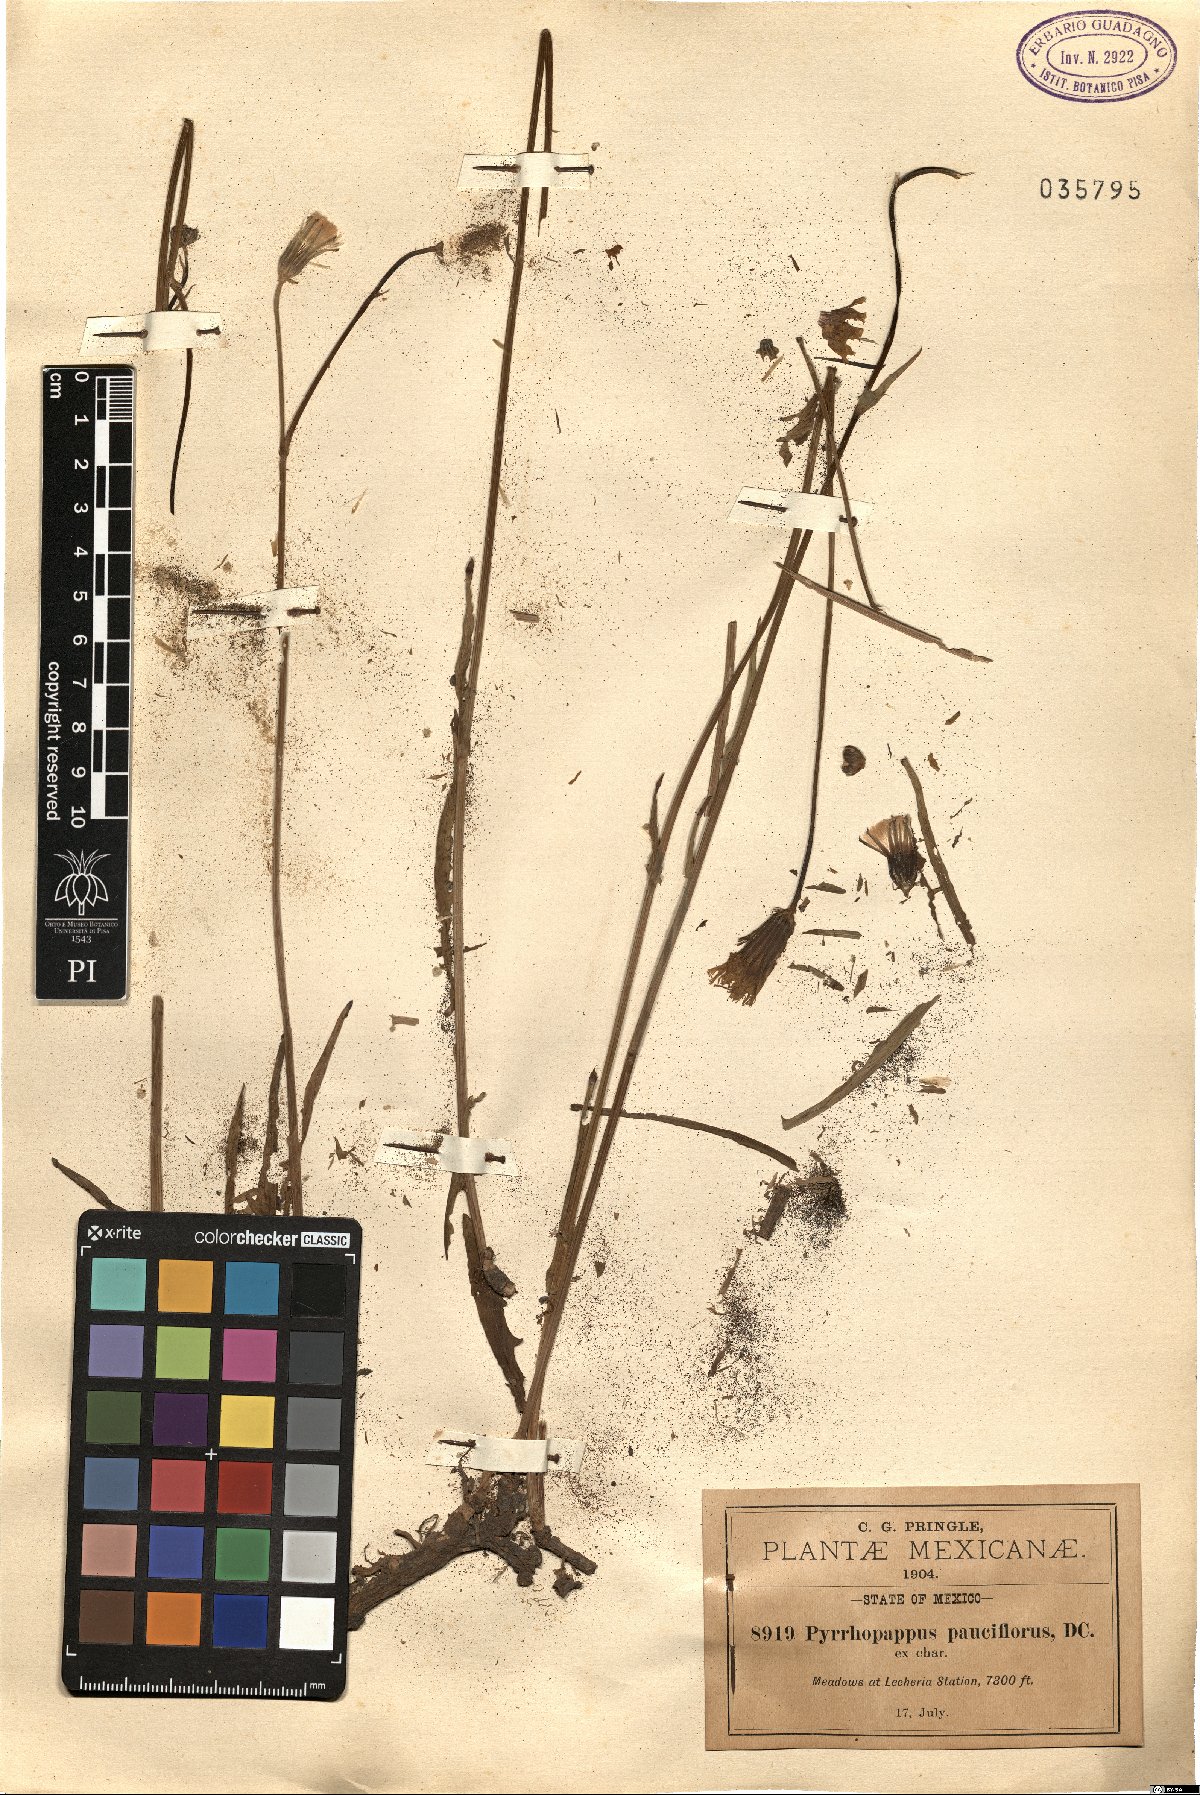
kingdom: Plantae
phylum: Tracheophyta
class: Magnoliopsida
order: Asterales
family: Asteraceae
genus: Pyrrhopappus
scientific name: Pyrrhopappus pauciflorus
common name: Texas false dandelion
